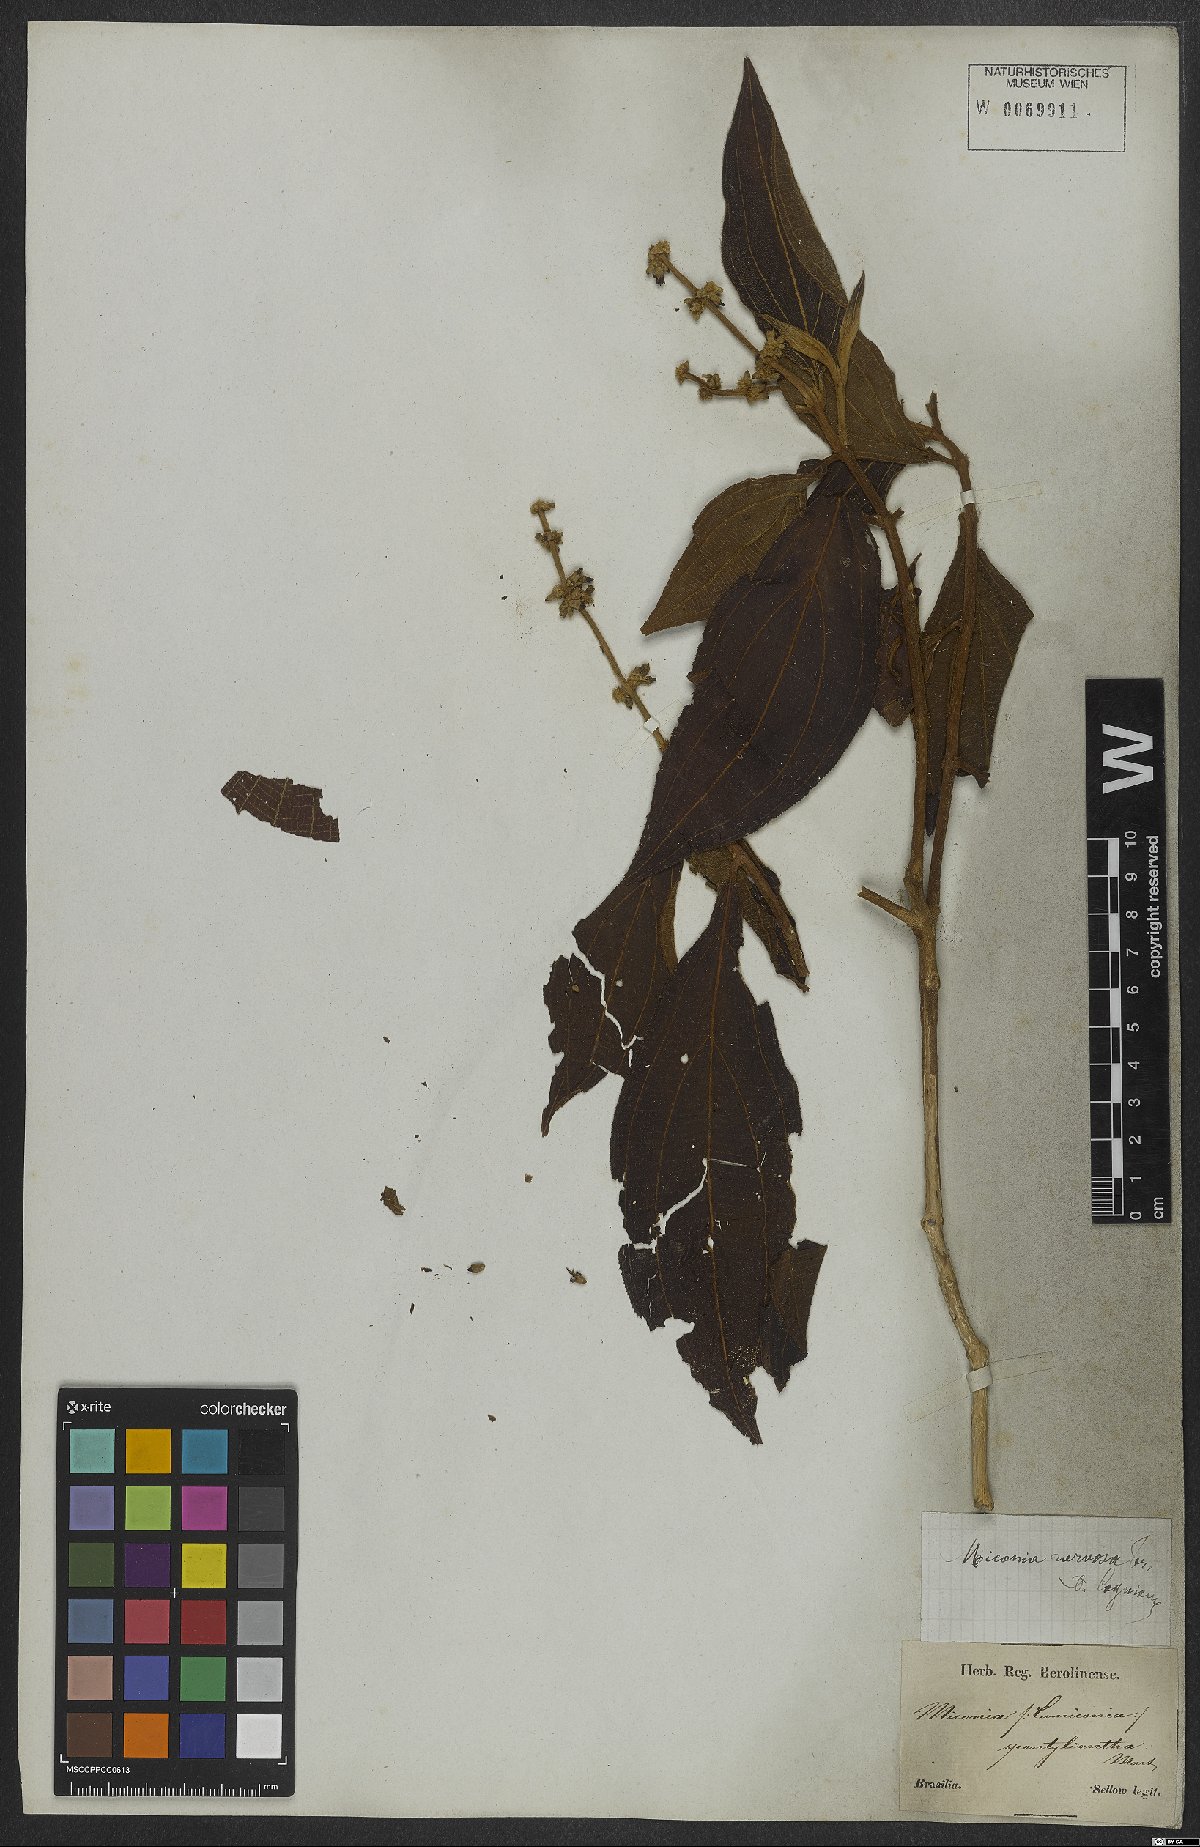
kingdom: Plantae
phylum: Tracheophyta
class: Magnoliopsida
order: Myrtales
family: Melastomataceae
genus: Miconia
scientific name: Miconia nervosa
